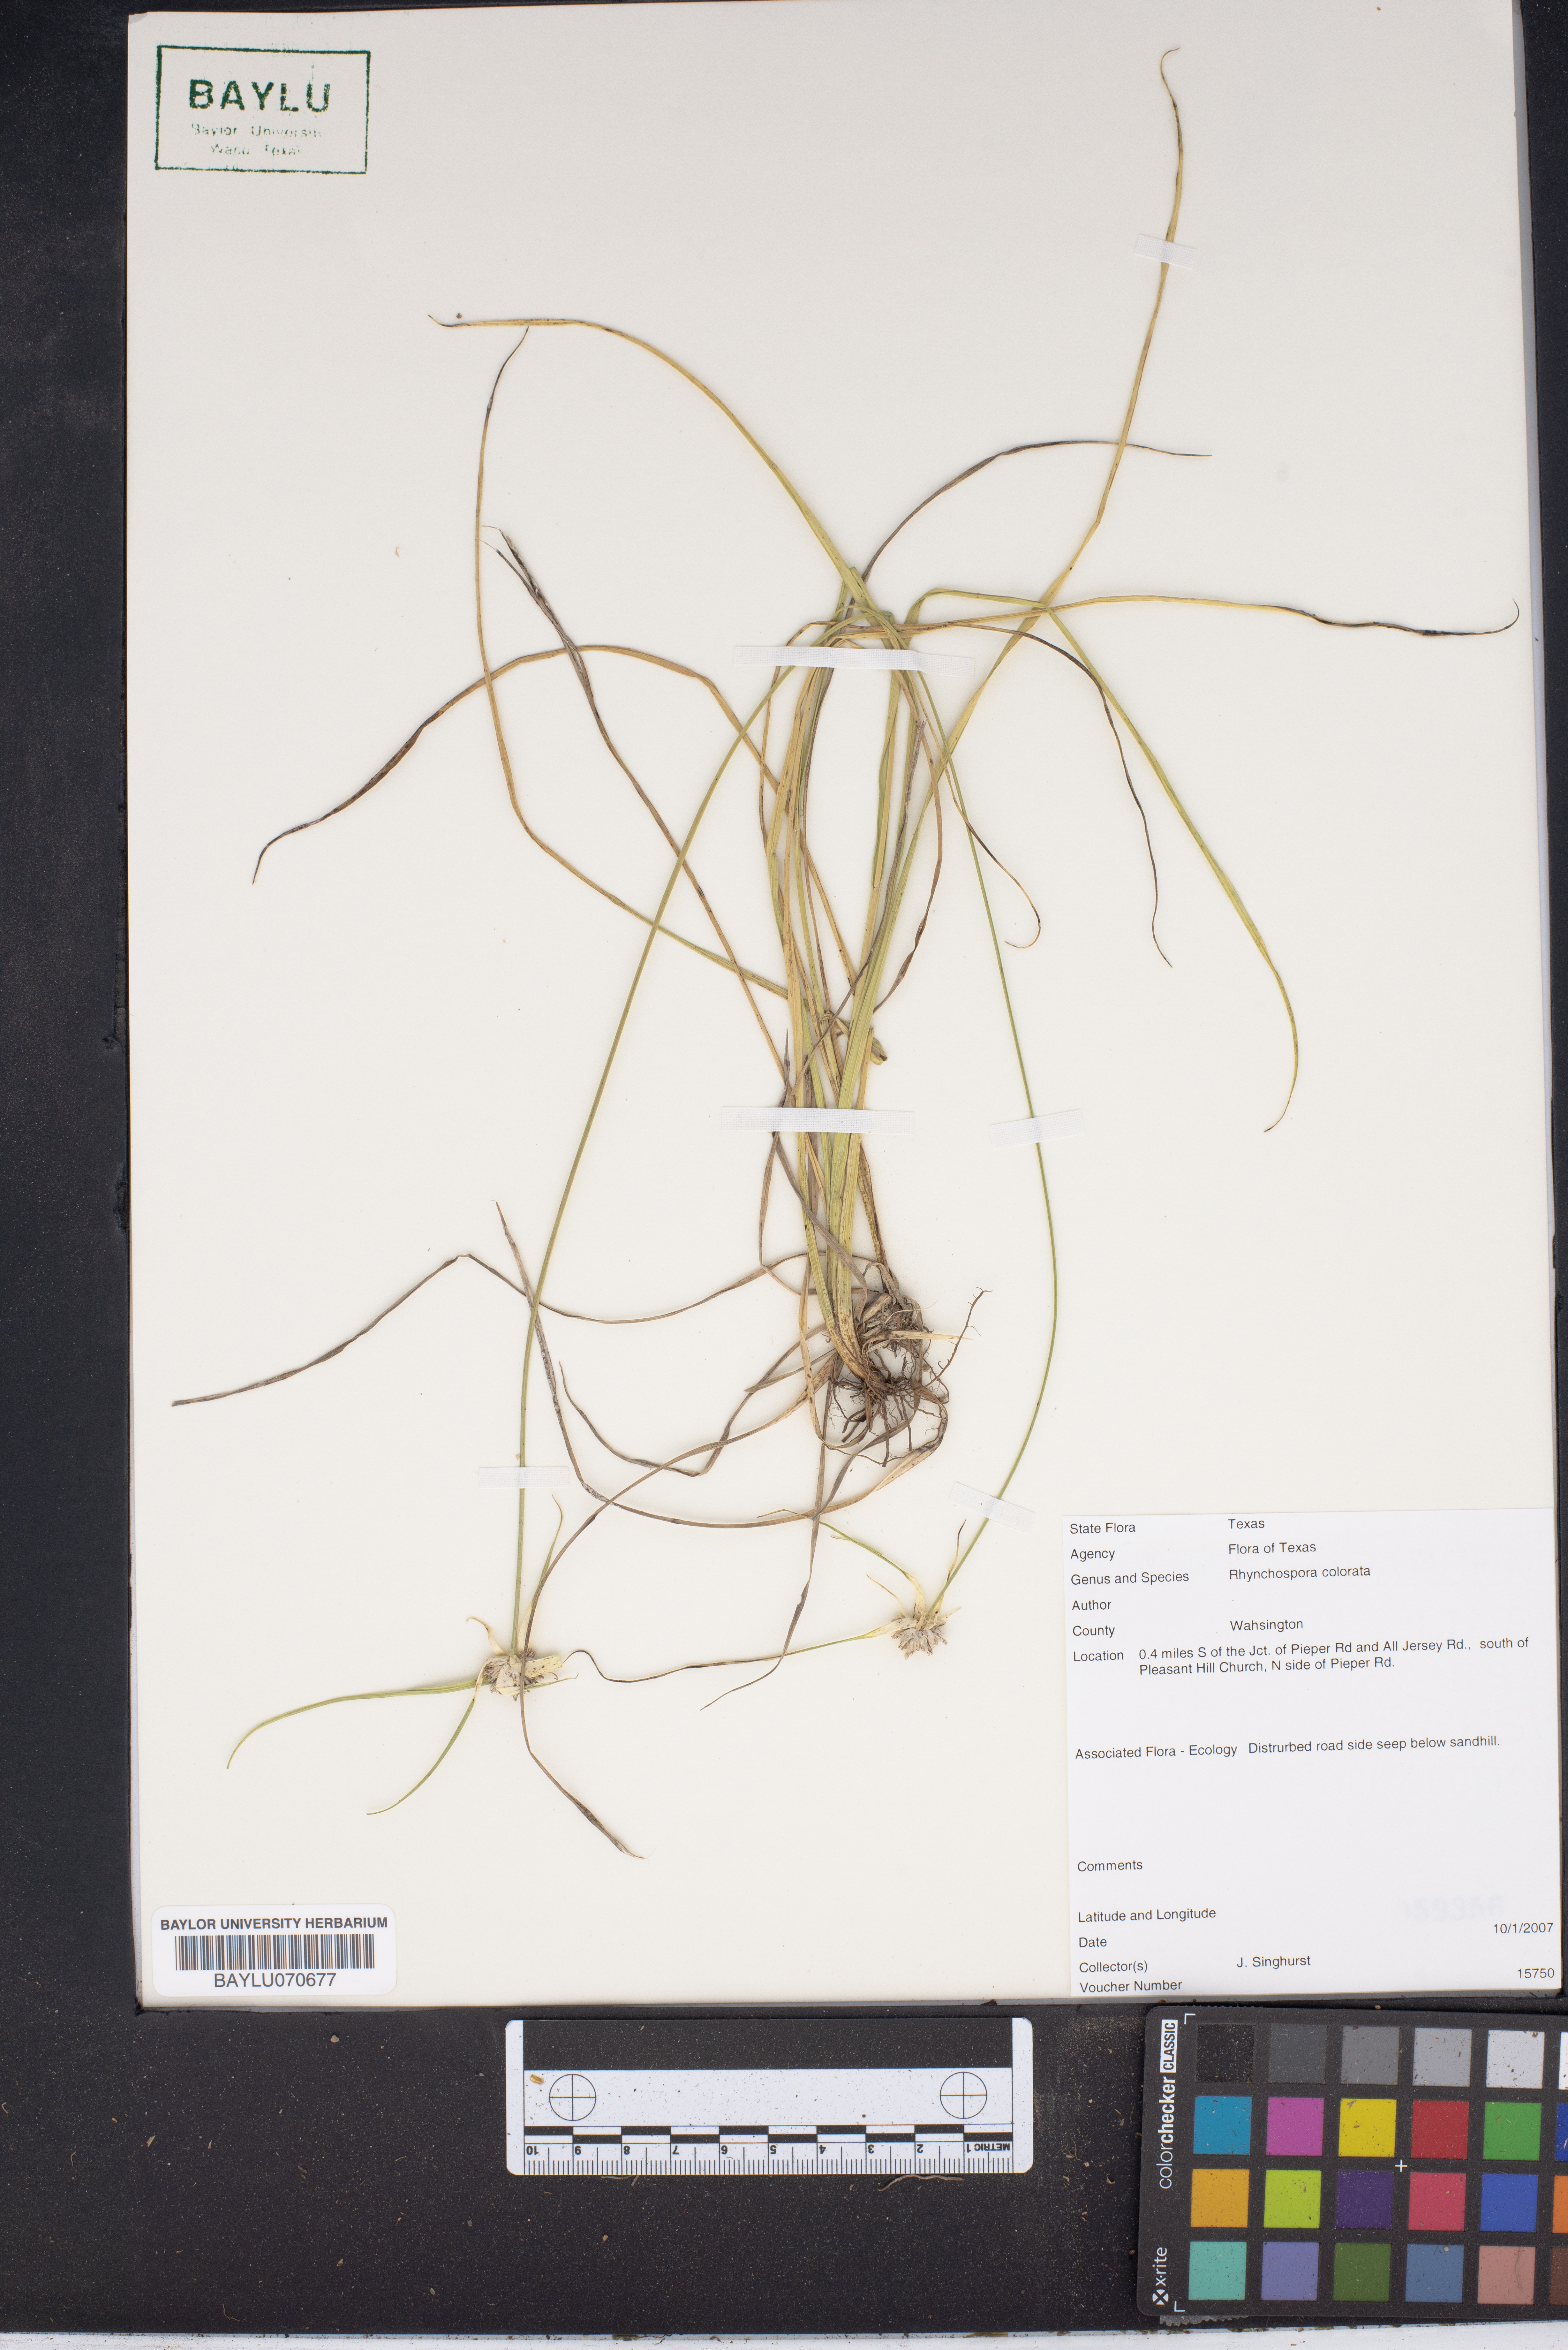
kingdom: Plantae
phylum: Tracheophyta
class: Liliopsida
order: Poales
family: Cyperaceae
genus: Rhynchospora
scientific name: Rhynchospora colorata
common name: Star sedge
